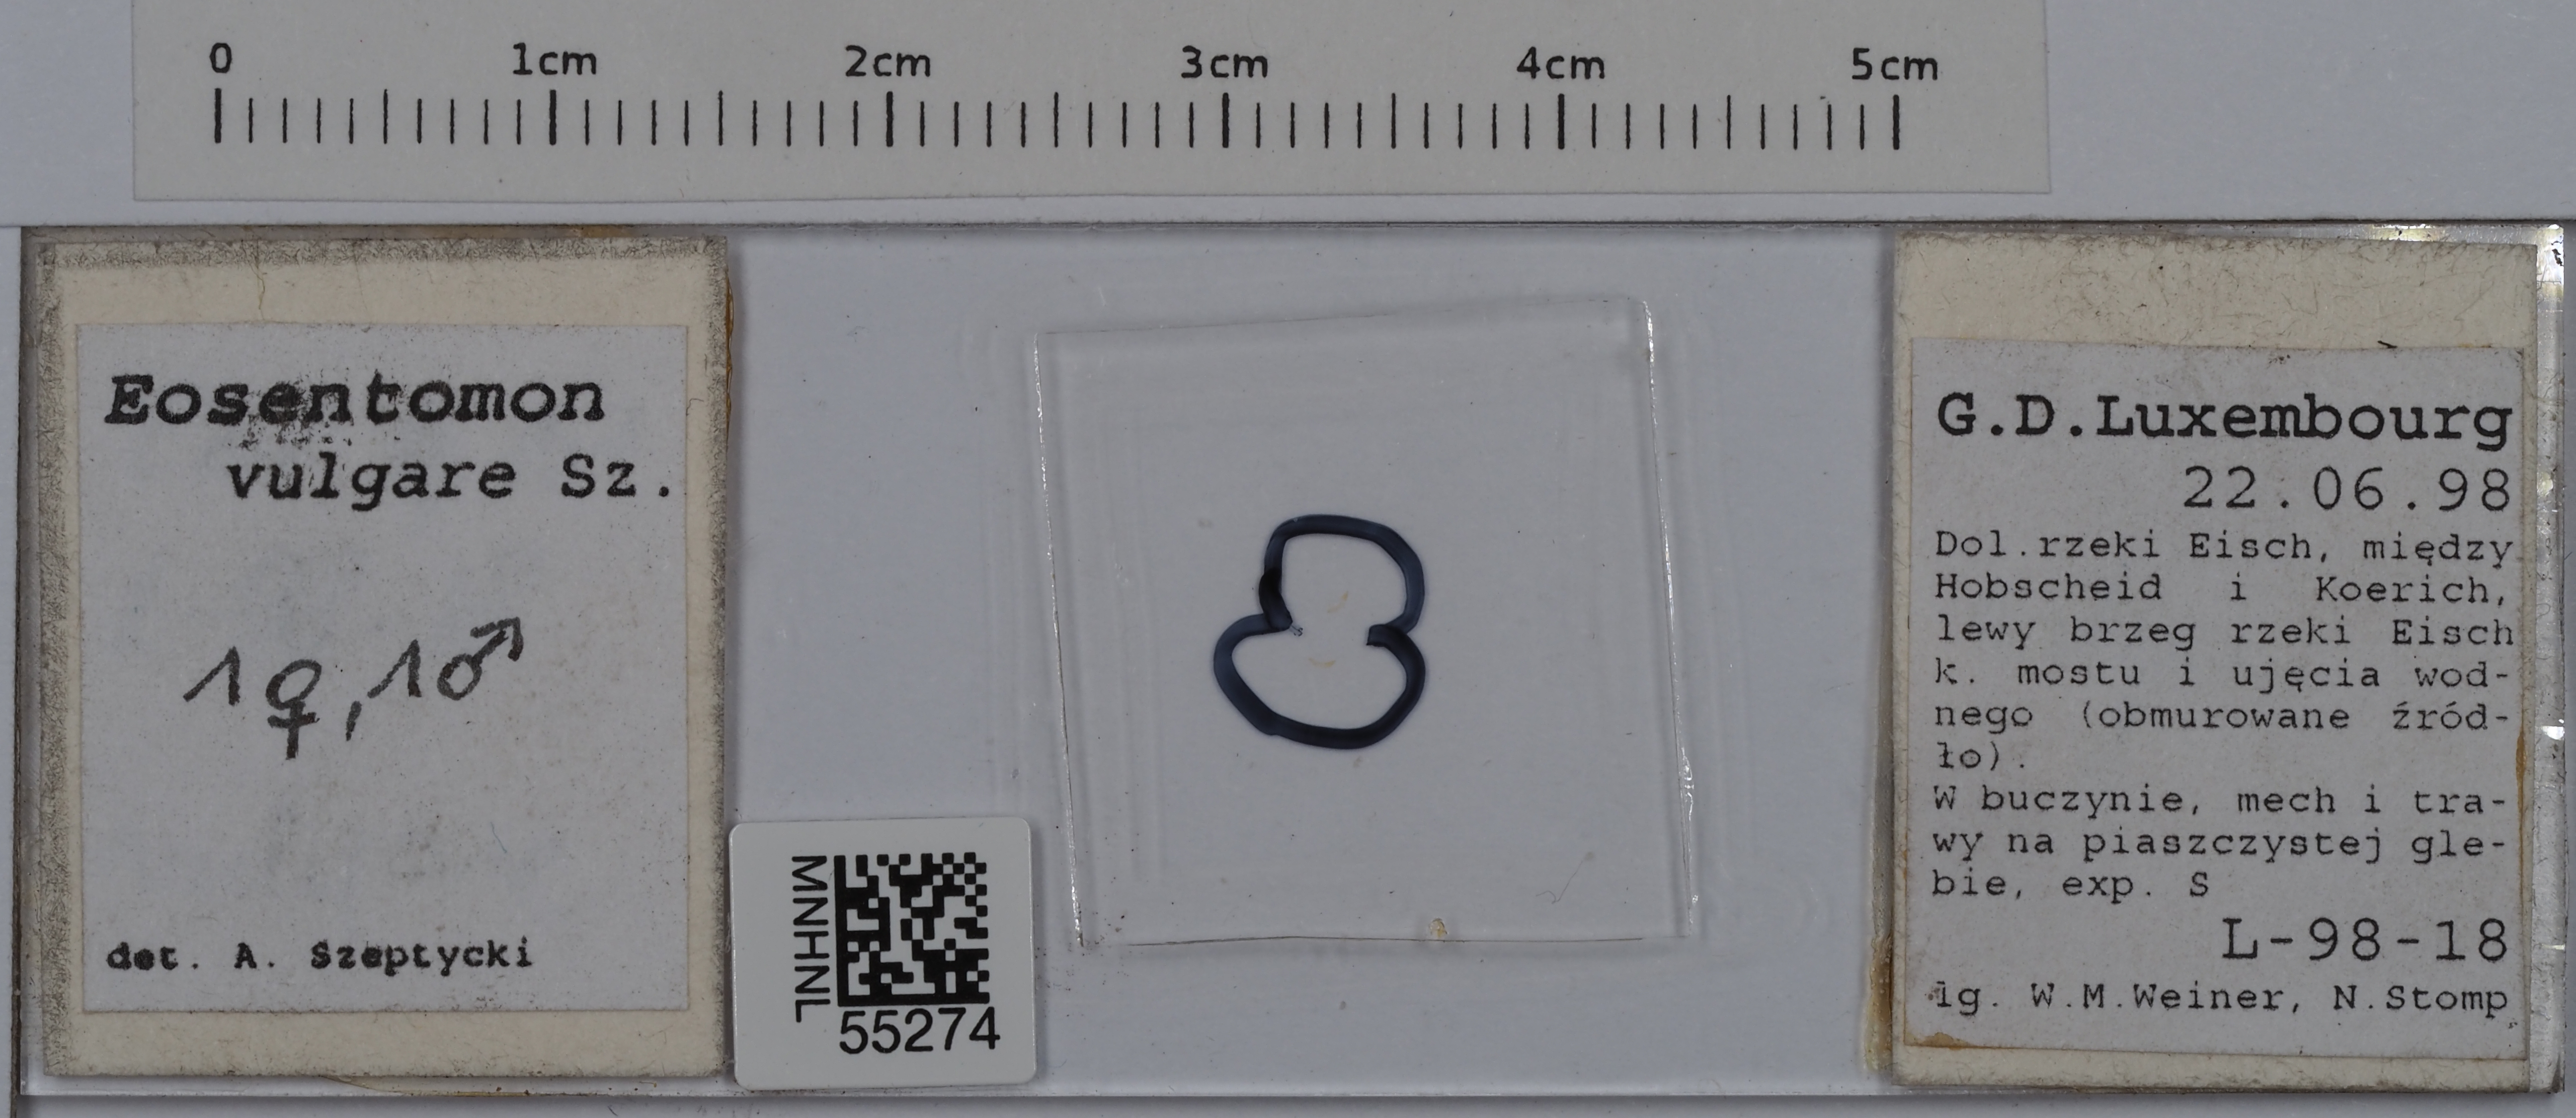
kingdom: Animalia
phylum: Arthropoda
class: Protura
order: Protura
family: Eosentomidae
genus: Eosentomon
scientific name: Eosentomon vulgare
